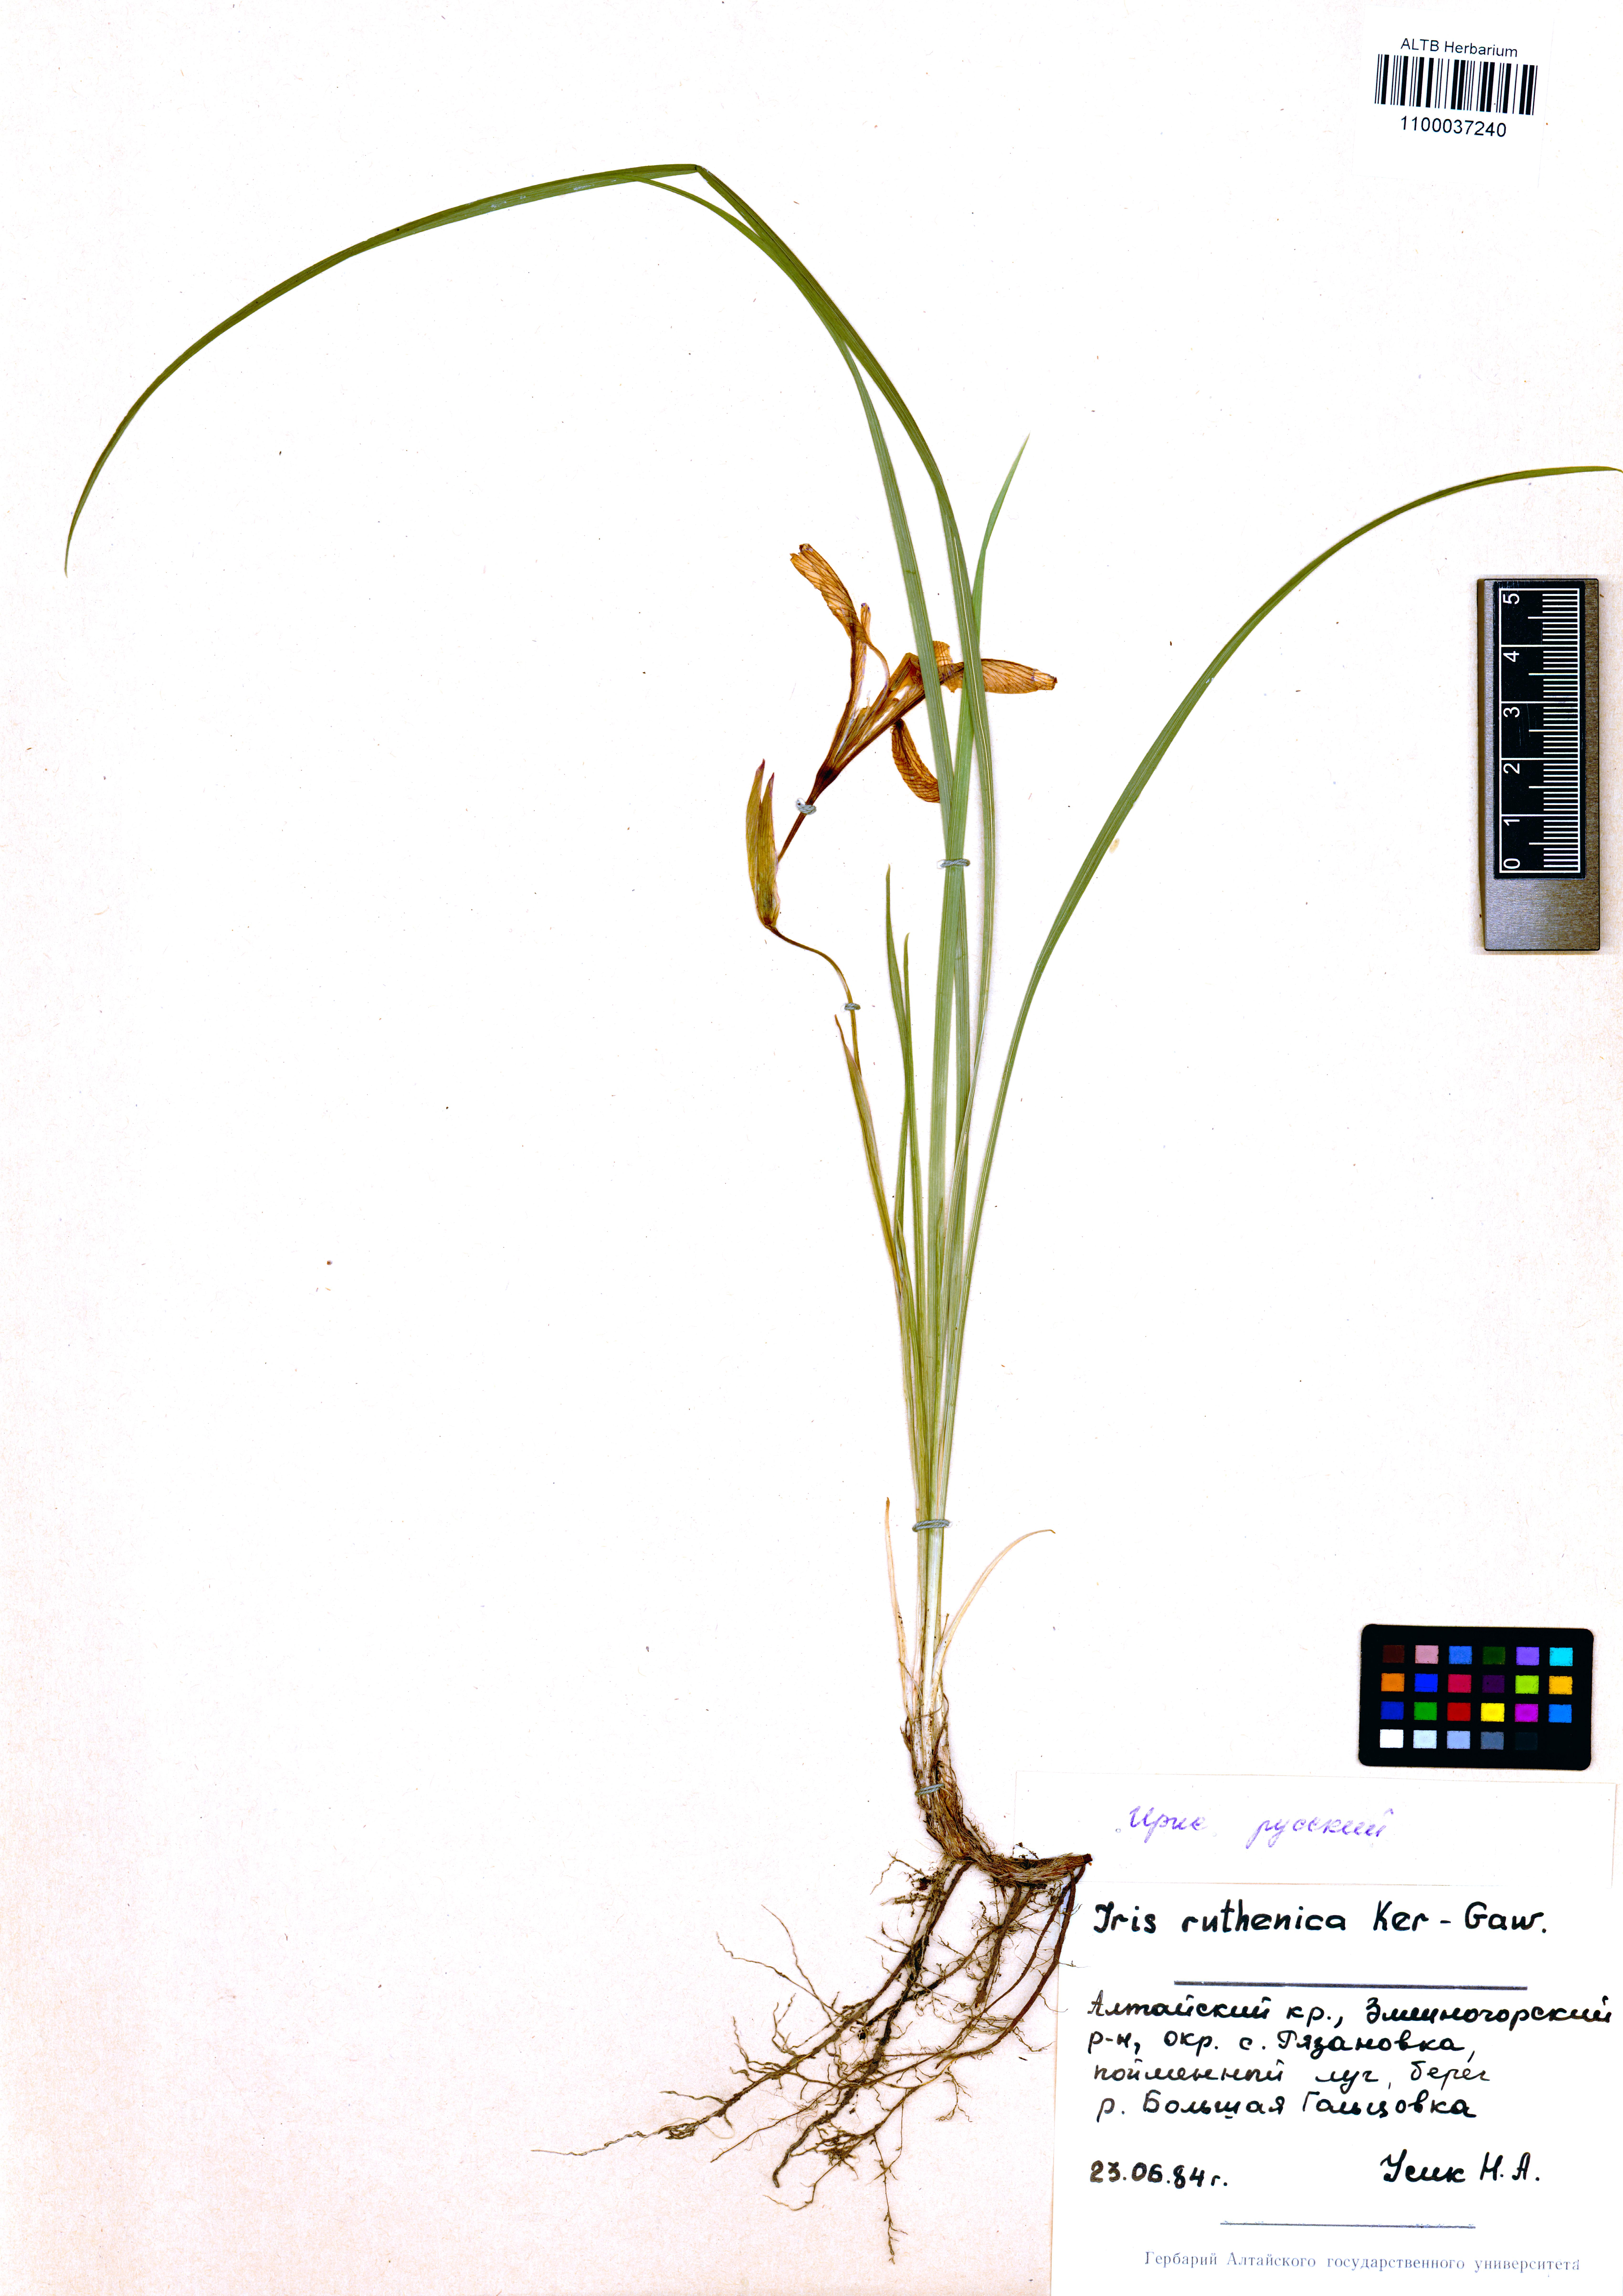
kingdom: Plantae
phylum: Tracheophyta
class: Liliopsida
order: Asparagales
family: Iridaceae
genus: Iris
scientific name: Iris ruthenica
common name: Purple-bract iris
